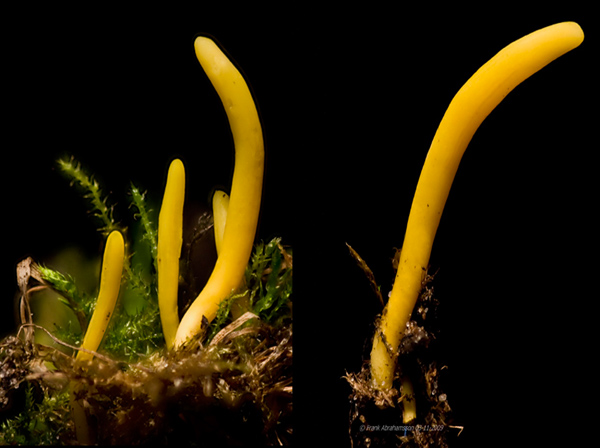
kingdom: Fungi
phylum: Basidiomycota
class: Agaricomycetes
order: Agaricales
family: Clavariaceae
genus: Clavulinopsis
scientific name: Clavulinopsis helvola
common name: orangegul køllesvamp
